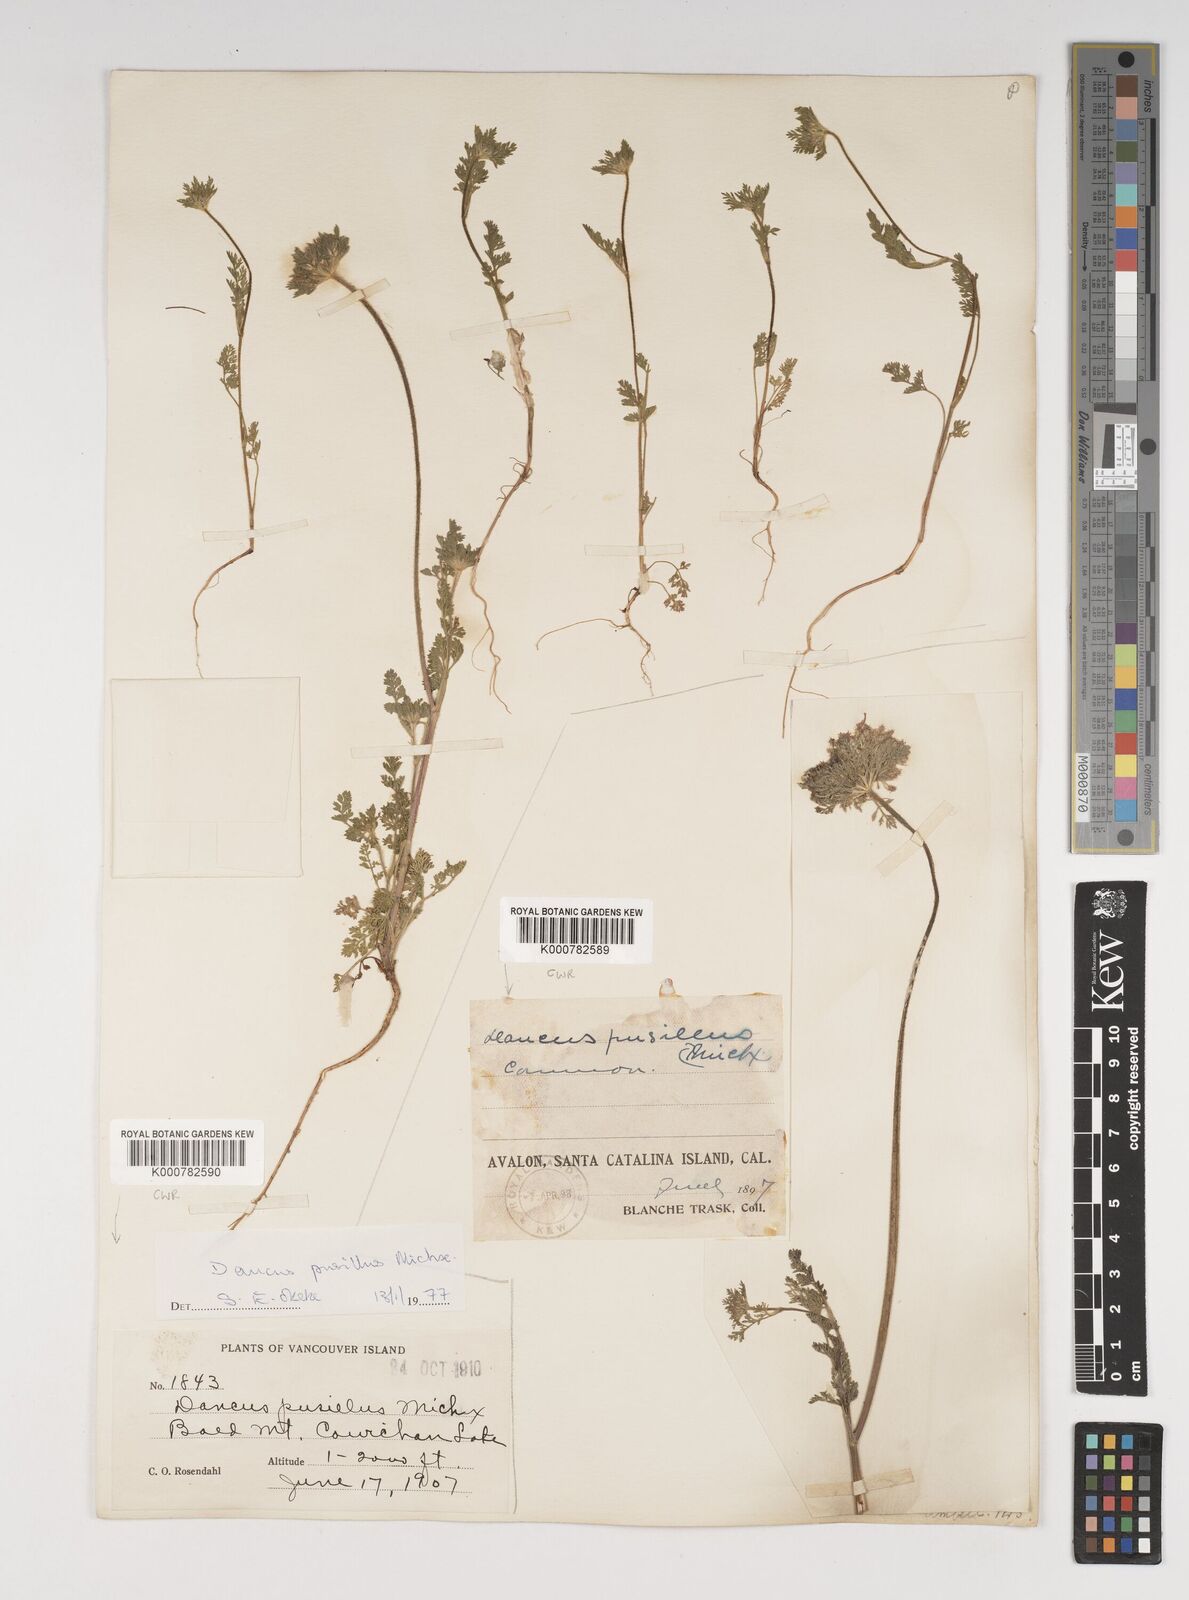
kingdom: Plantae
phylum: Tracheophyta
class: Magnoliopsida
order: Apiales
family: Apiaceae
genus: Daucus
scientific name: Daucus pusillus
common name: Southwest wild carrot
